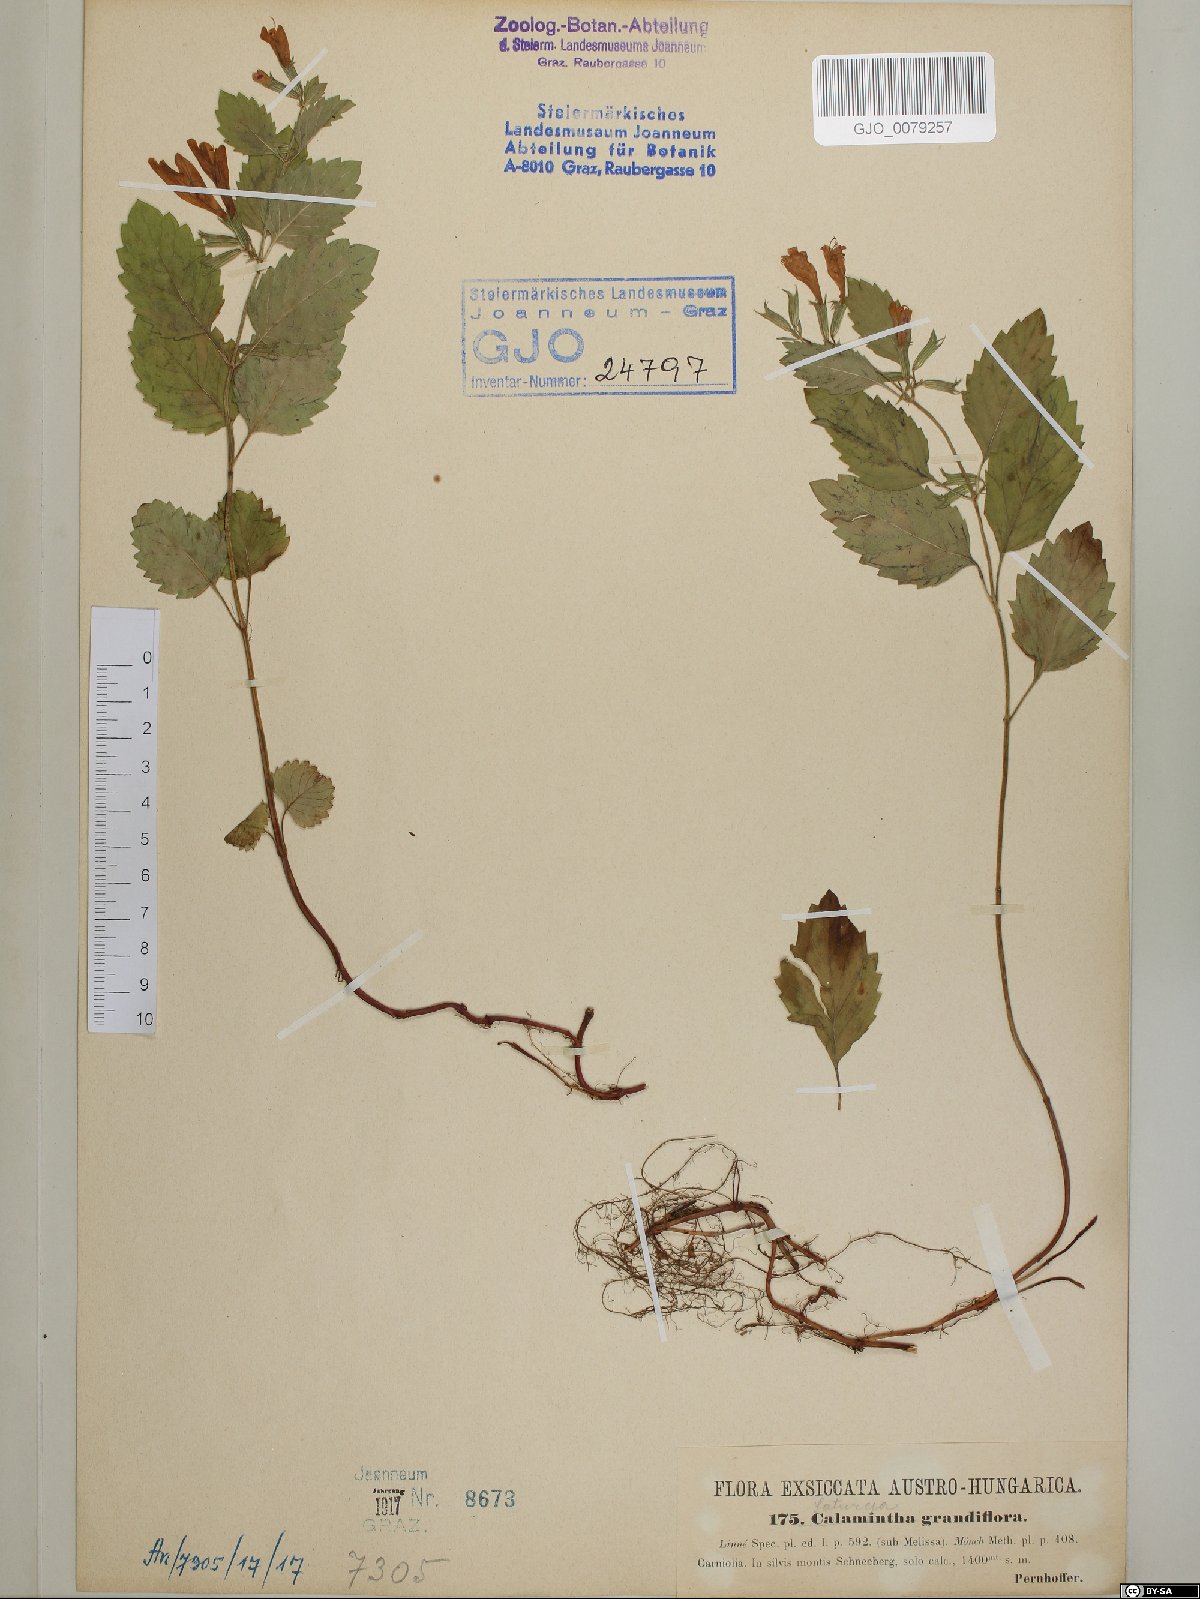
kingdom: Plantae
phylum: Tracheophyta
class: Magnoliopsida
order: Lamiales
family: Lamiaceae
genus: Clinopodium
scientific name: Clinopodium grandiflorum
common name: Greater calamint
